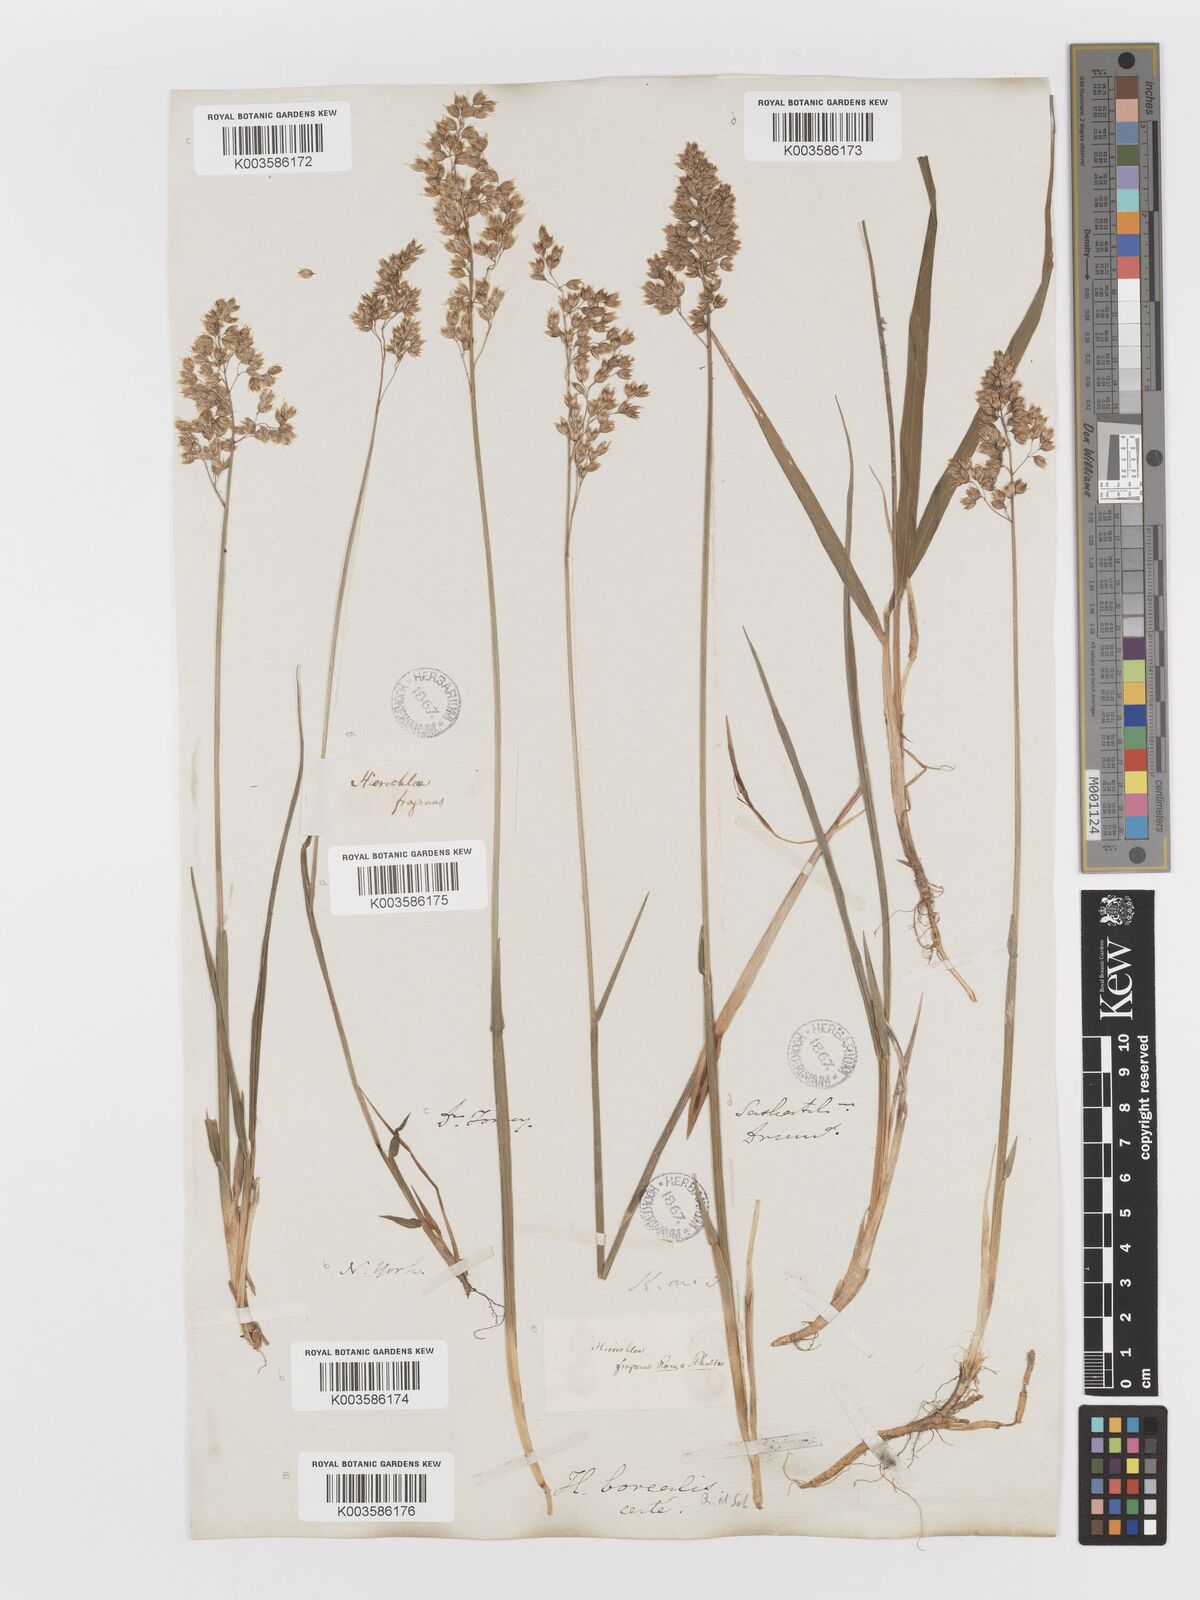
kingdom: Plantae
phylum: Tracheophyta
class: Liliopsida
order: Poales
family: Poaceae
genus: Anthoxanthum
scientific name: Anthoxanthum nitens
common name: Holy grass
